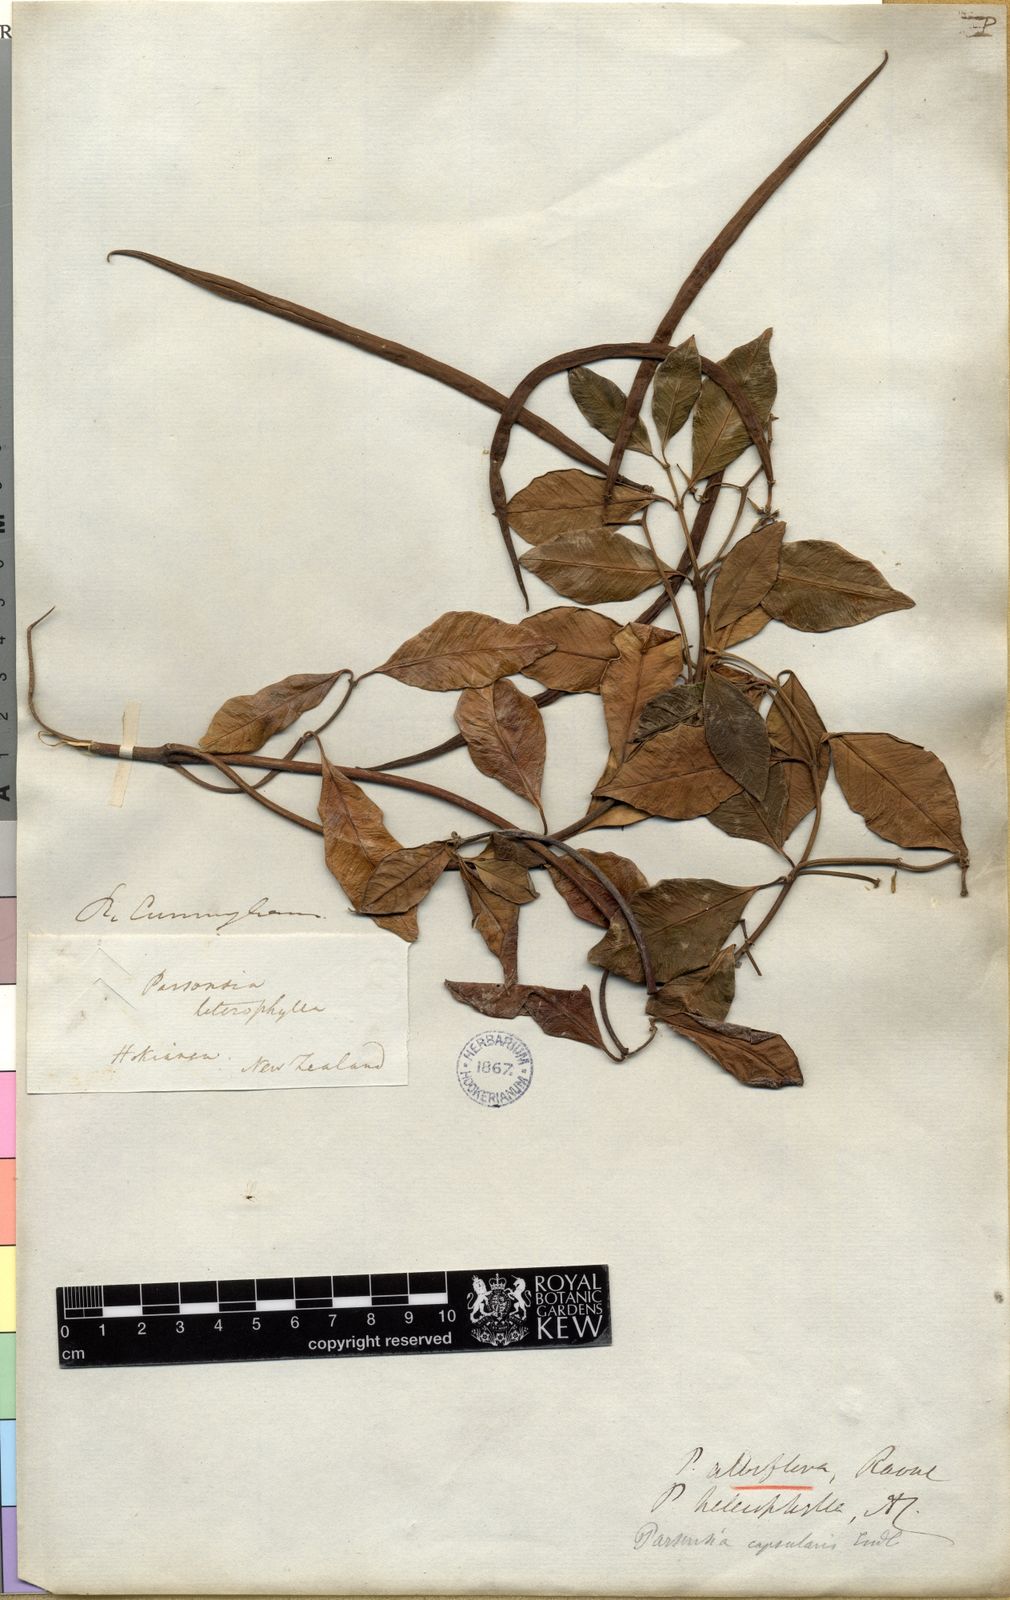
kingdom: Plantae
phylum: Tracheophyta
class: Magnoliopsida
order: Gentianales
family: Apocynaceae
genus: Parsonsia
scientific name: Parsonsia heterophylla
